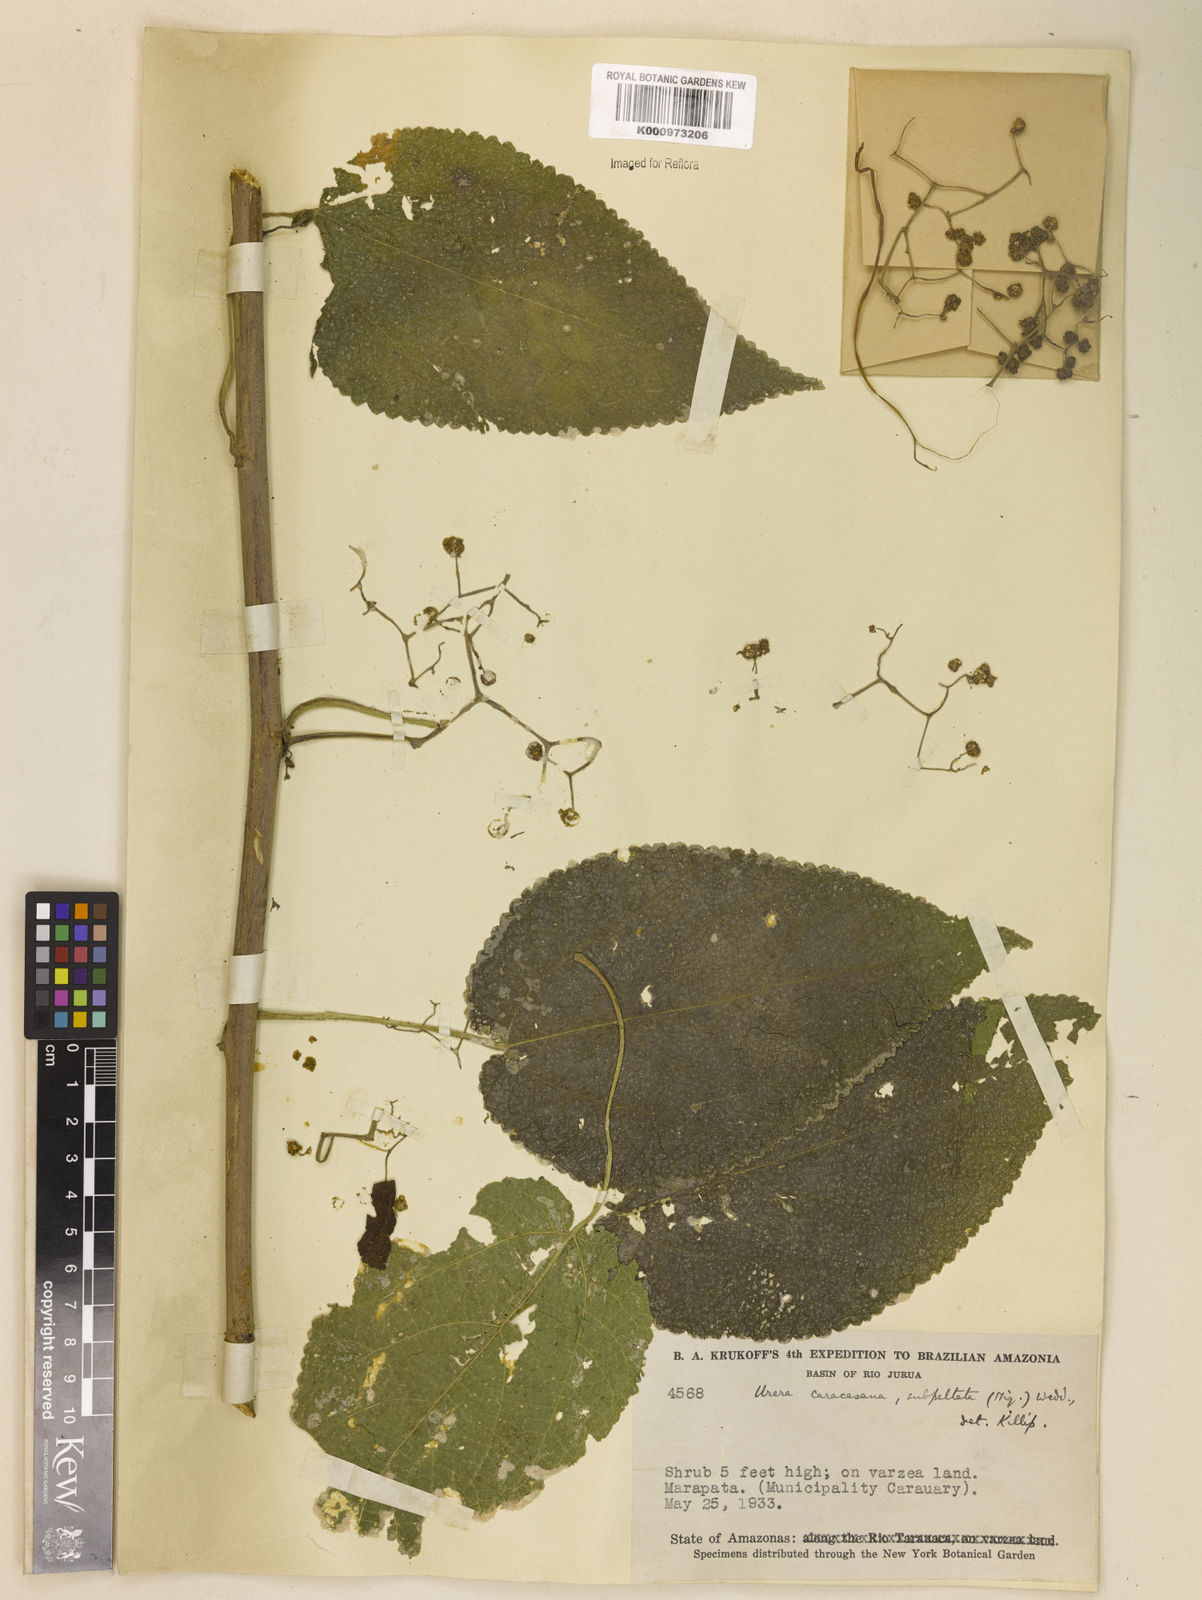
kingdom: Plantae
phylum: Tracheophyta
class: Magnoliopsida
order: Rosales
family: Urticaceae
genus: Urera
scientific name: Urera caracasana
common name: Flameberry
